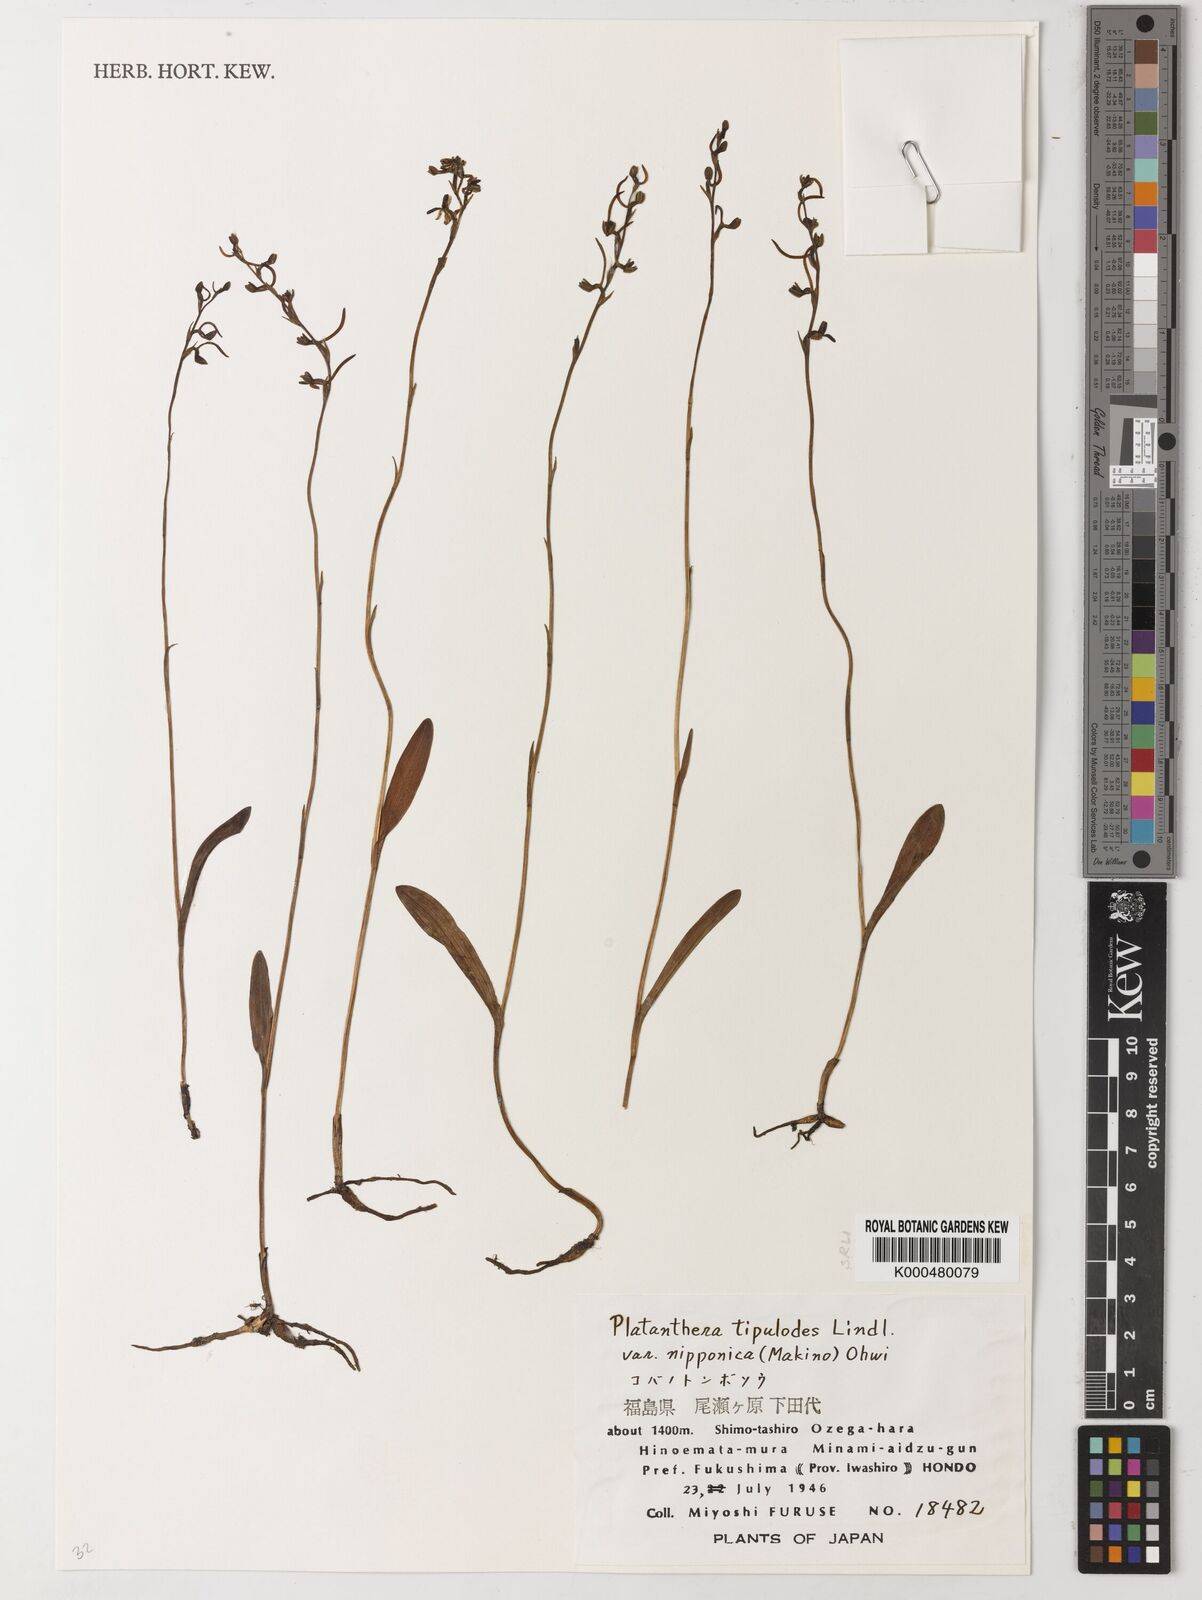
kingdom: Plantae
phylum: Tracheophyta
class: Liliopsida
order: Asparagales
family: Orchidaceae
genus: Platanthera
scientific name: Platanthera nipponica
